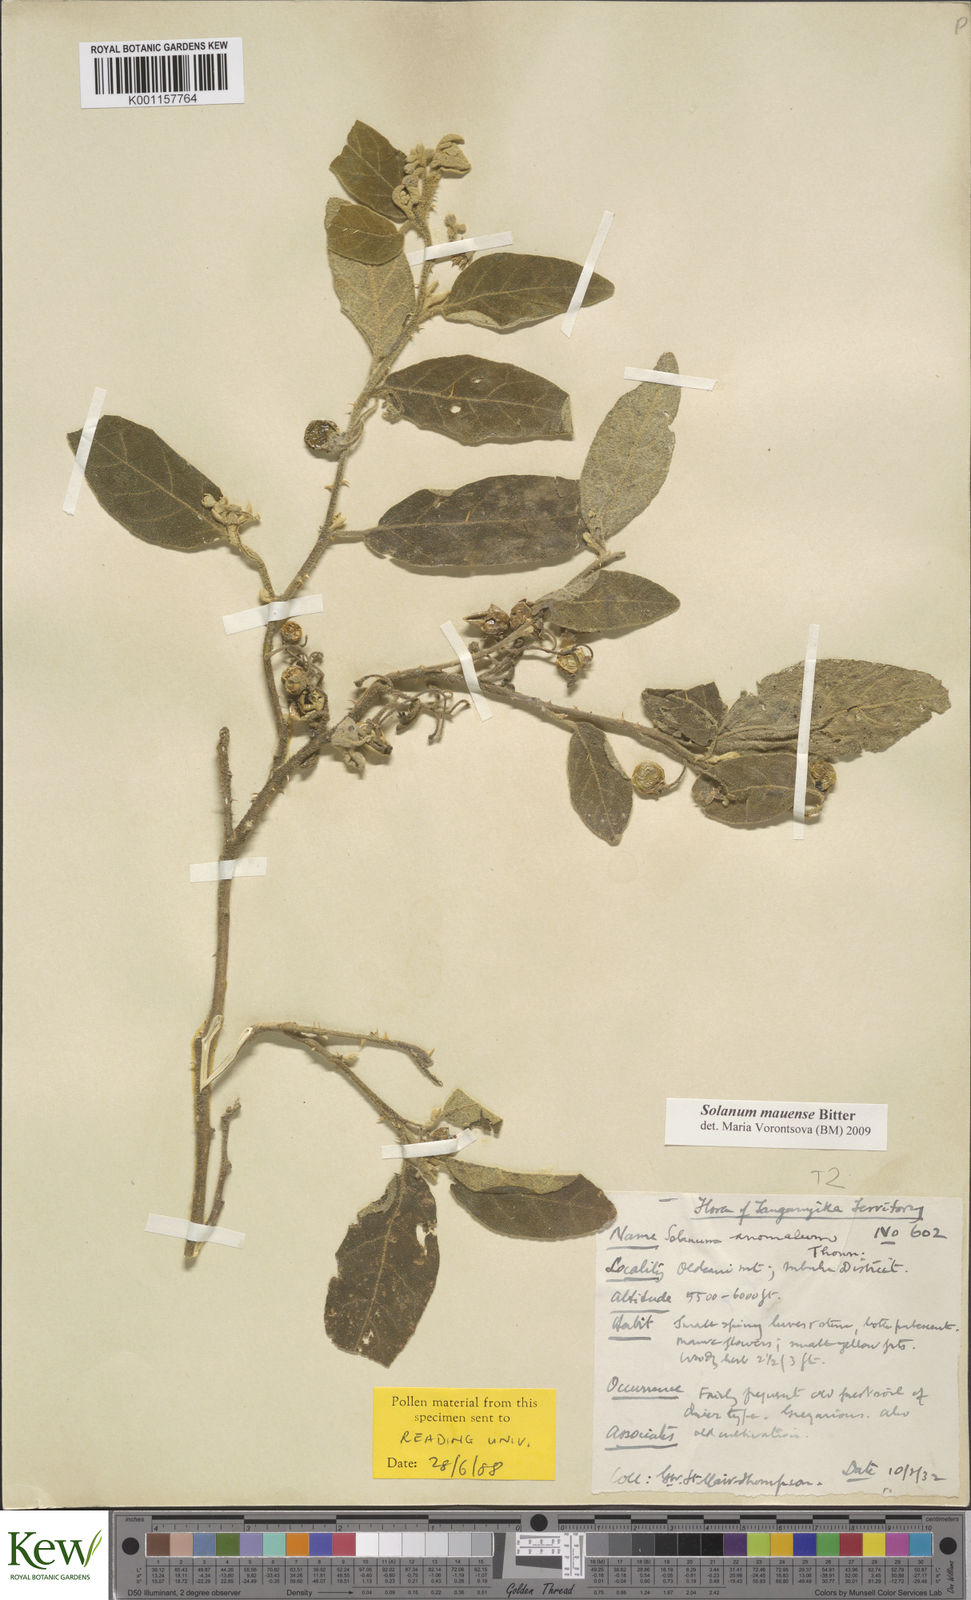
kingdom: Plantae
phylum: Tracheophyta
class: Magnoliopsida
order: Solanales
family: Solanaceae
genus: Solanum
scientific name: Solanum mauense
